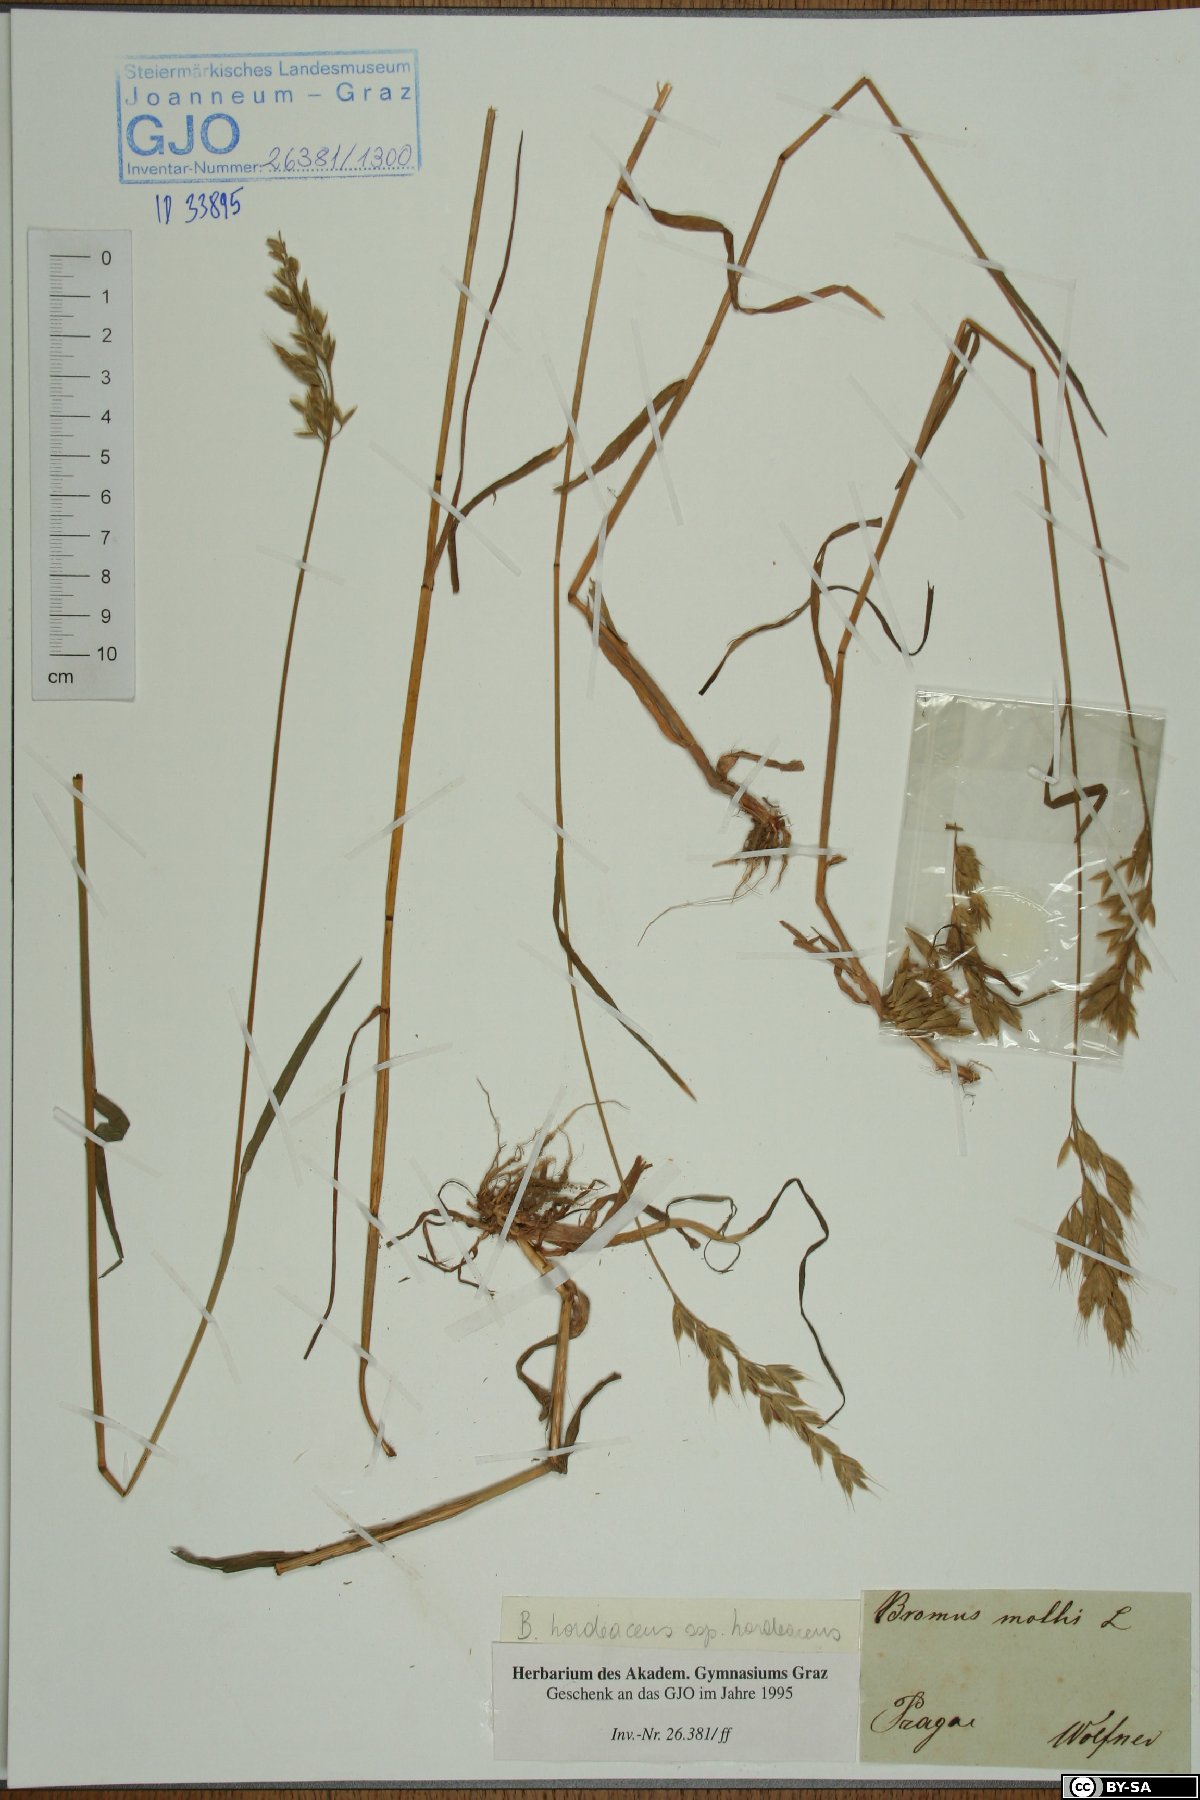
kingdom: Plantae
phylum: Tracheophyta
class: Liliopsida
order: Poales
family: Poaceae
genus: Bromus
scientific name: Bromus hordeaceus
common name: Soft brome
